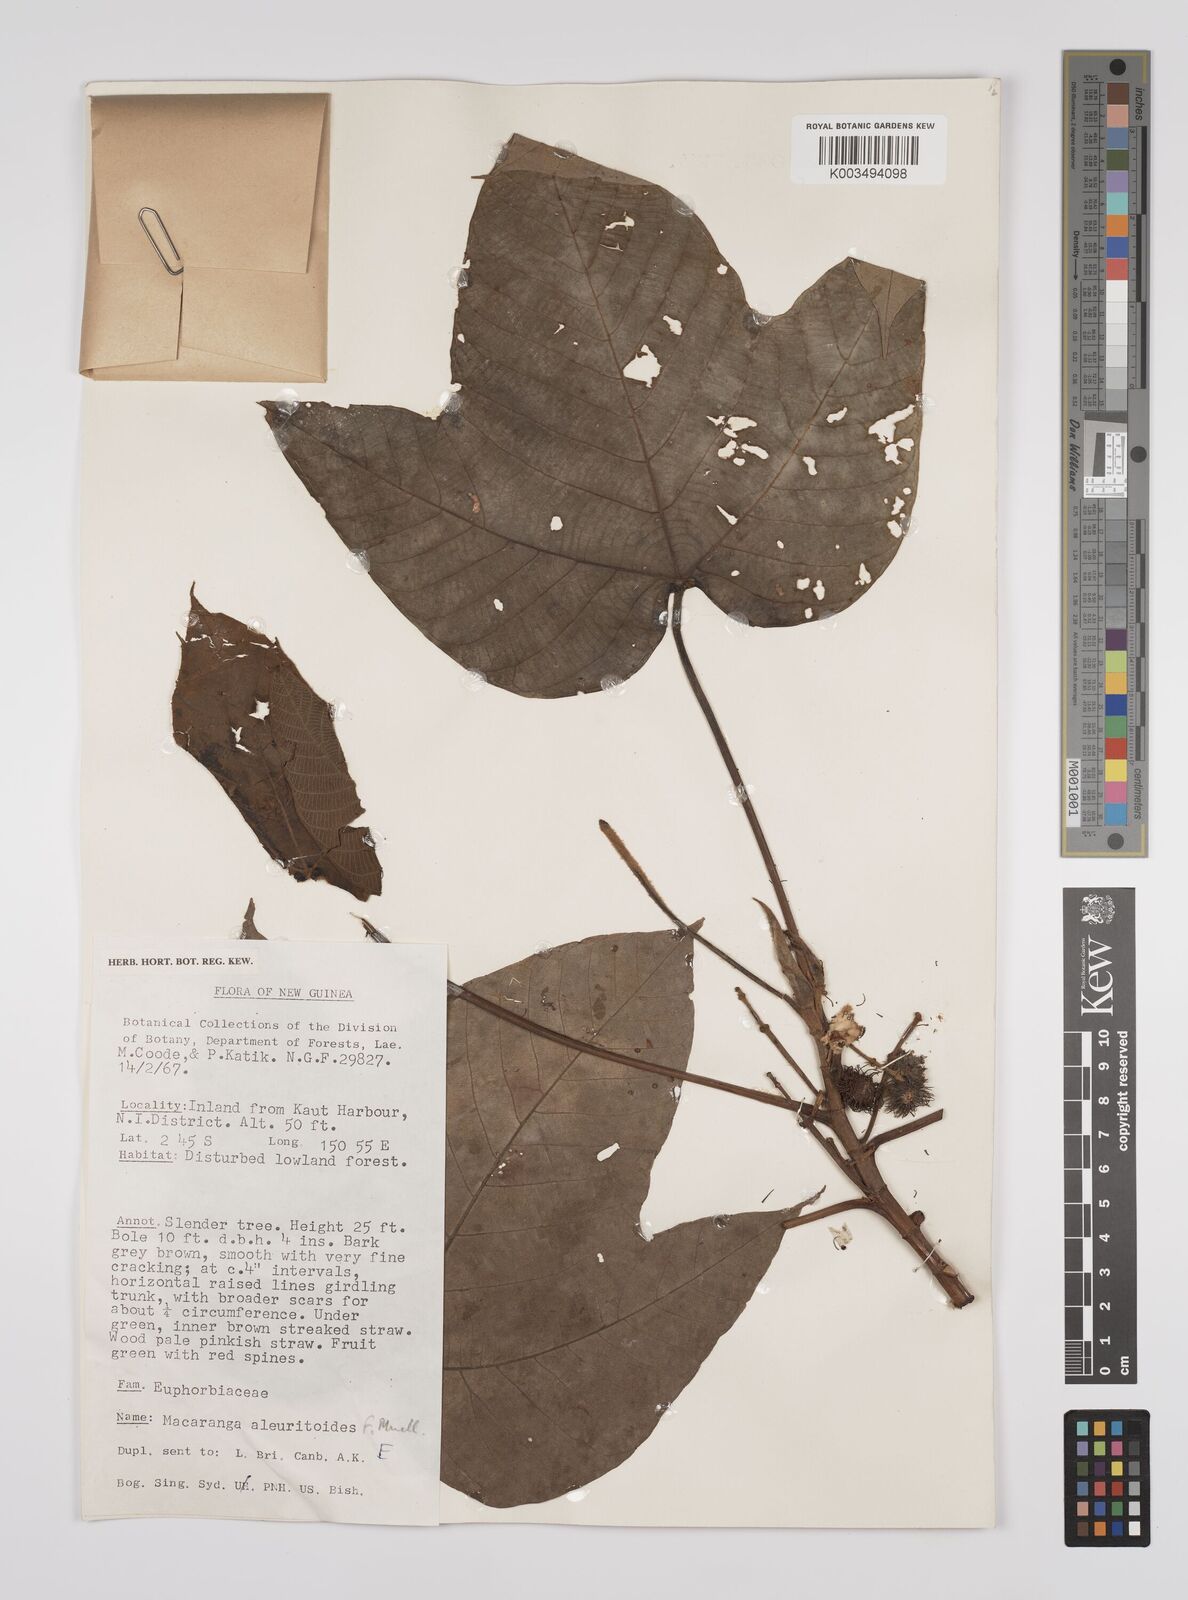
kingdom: Plantae
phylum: Tracheophyta
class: Magnoliopsida
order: Malpighiales
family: Euphorbiaceae
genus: Macaranga
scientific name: Macaranga aleuritoides
